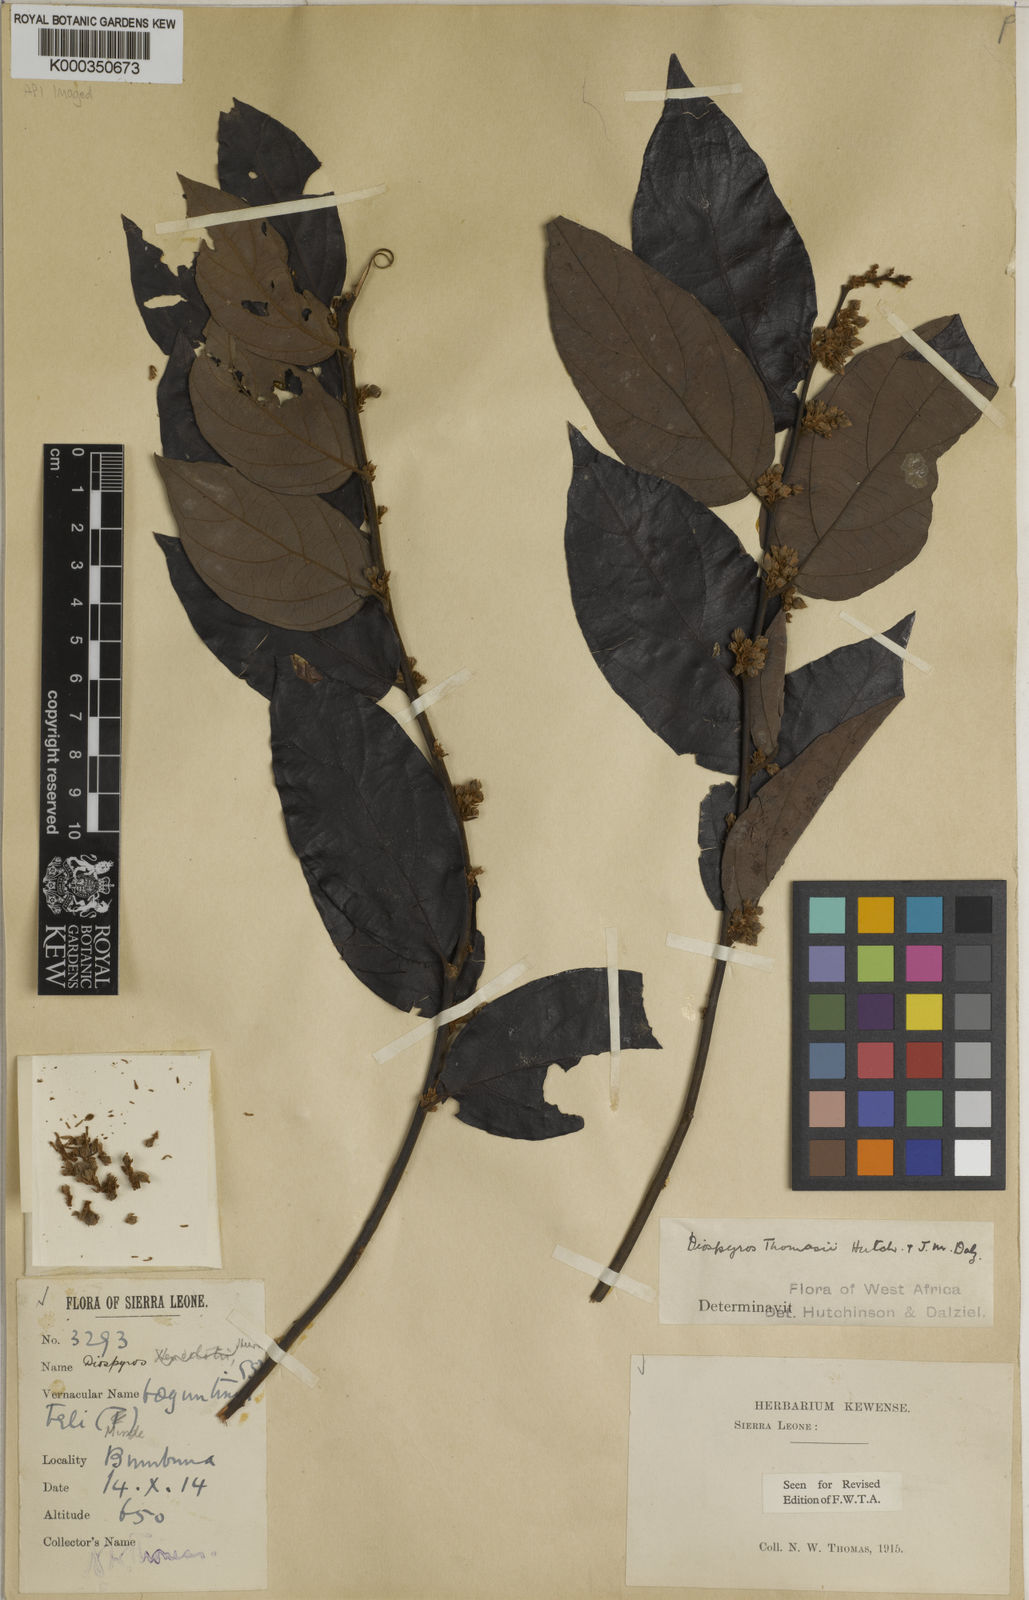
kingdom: Plantae
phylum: Tracheophyta
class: Magnoliopsida
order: Ericales
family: Ebenaceae
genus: Diospyros
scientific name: Diospyros thomasii
